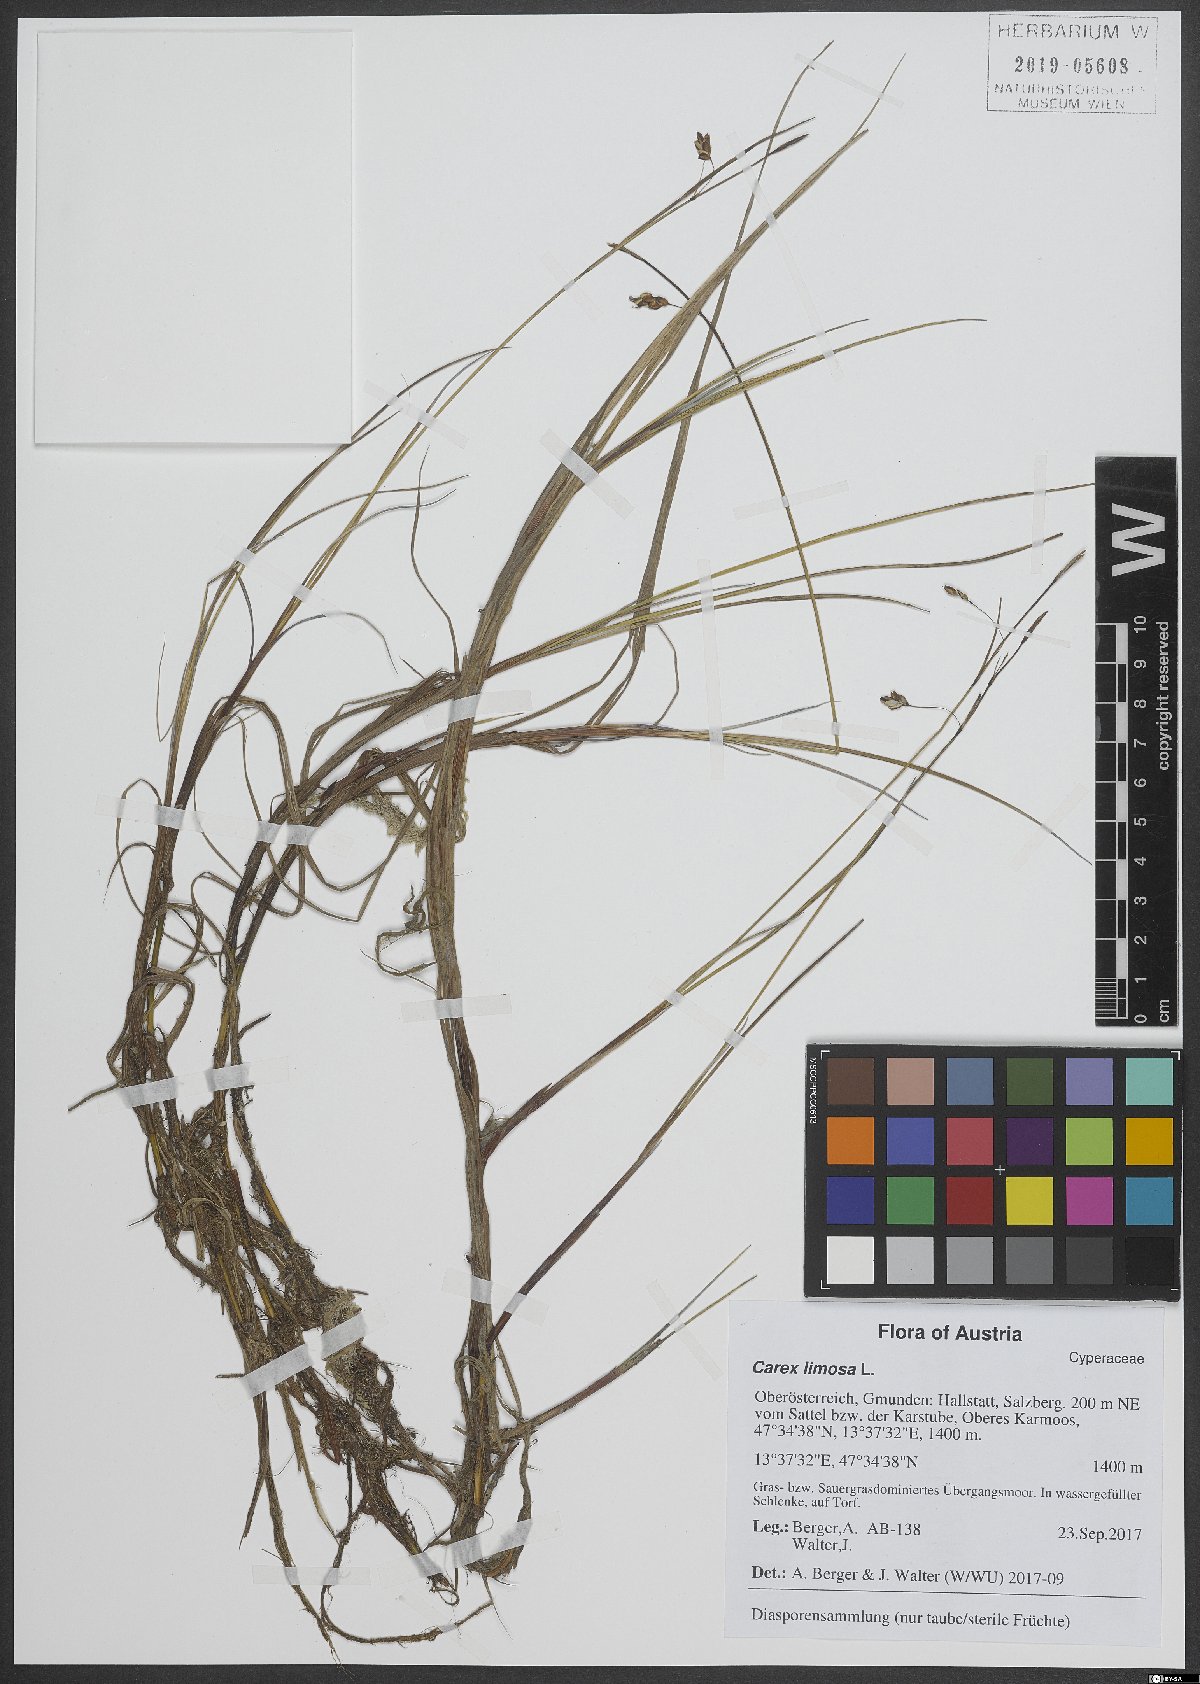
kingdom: Plantae
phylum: Tracheophyta
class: Liliopsida
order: Poales
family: Cyperaceae
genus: Carex
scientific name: Carex limosa
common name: Bog sedge
